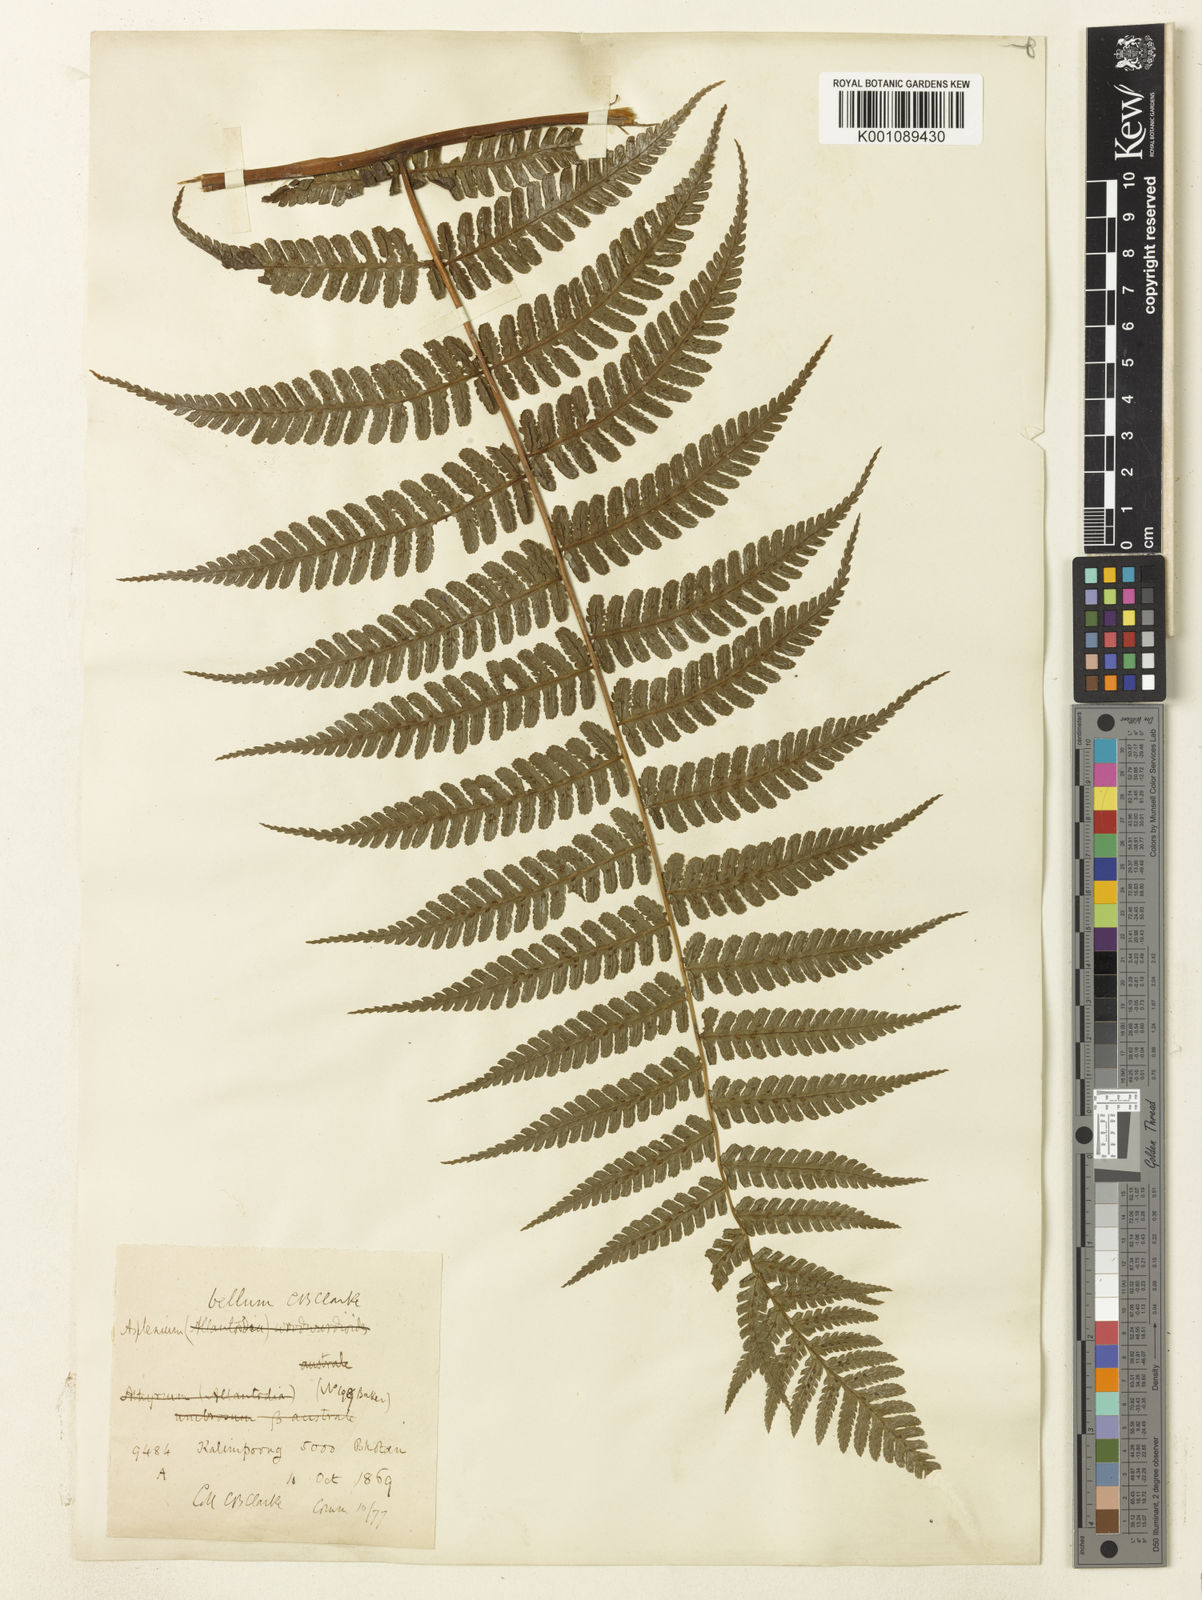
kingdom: Plantae
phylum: Tracheophyta
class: Polypodiopsida
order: Polypodiales
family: Athyriaceae
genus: Diplazium
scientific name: Diplazium bellum
